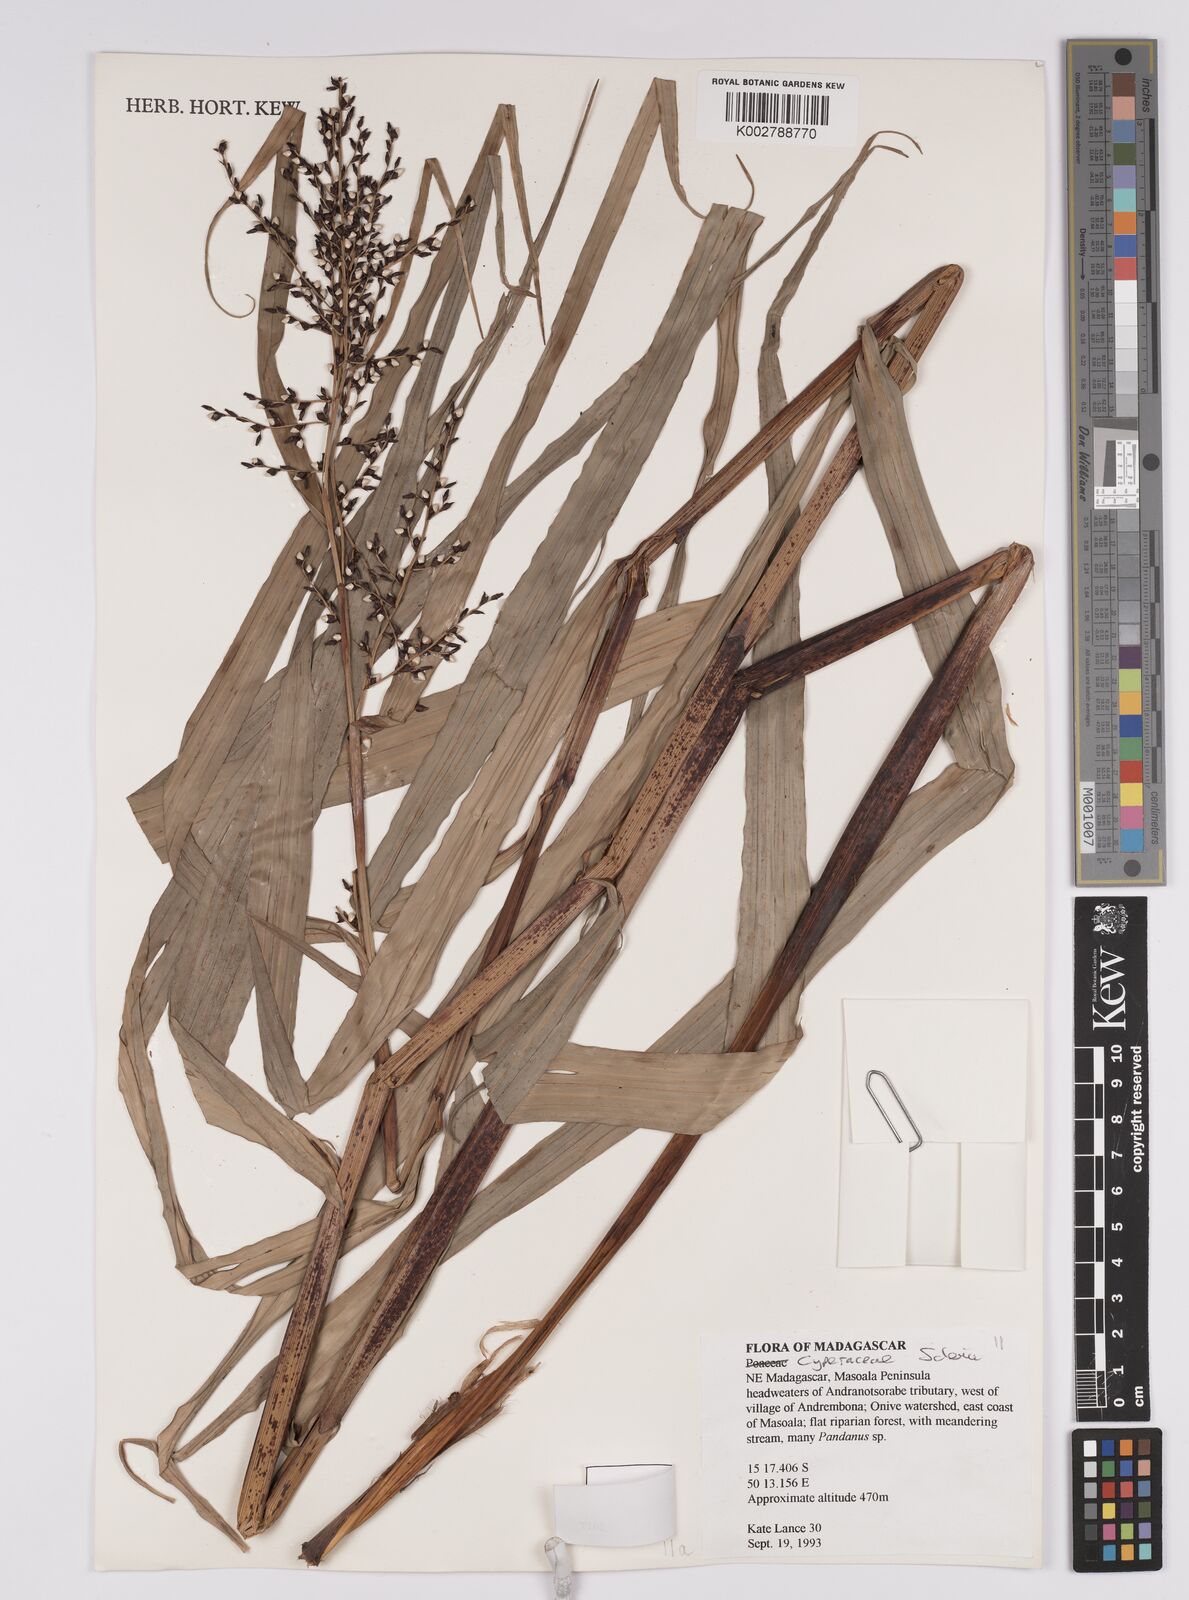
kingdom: Plantae
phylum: Tracheophyta
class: Liliopsida
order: Poales
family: Cyperaceae
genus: Scleria
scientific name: Scleria trialata
